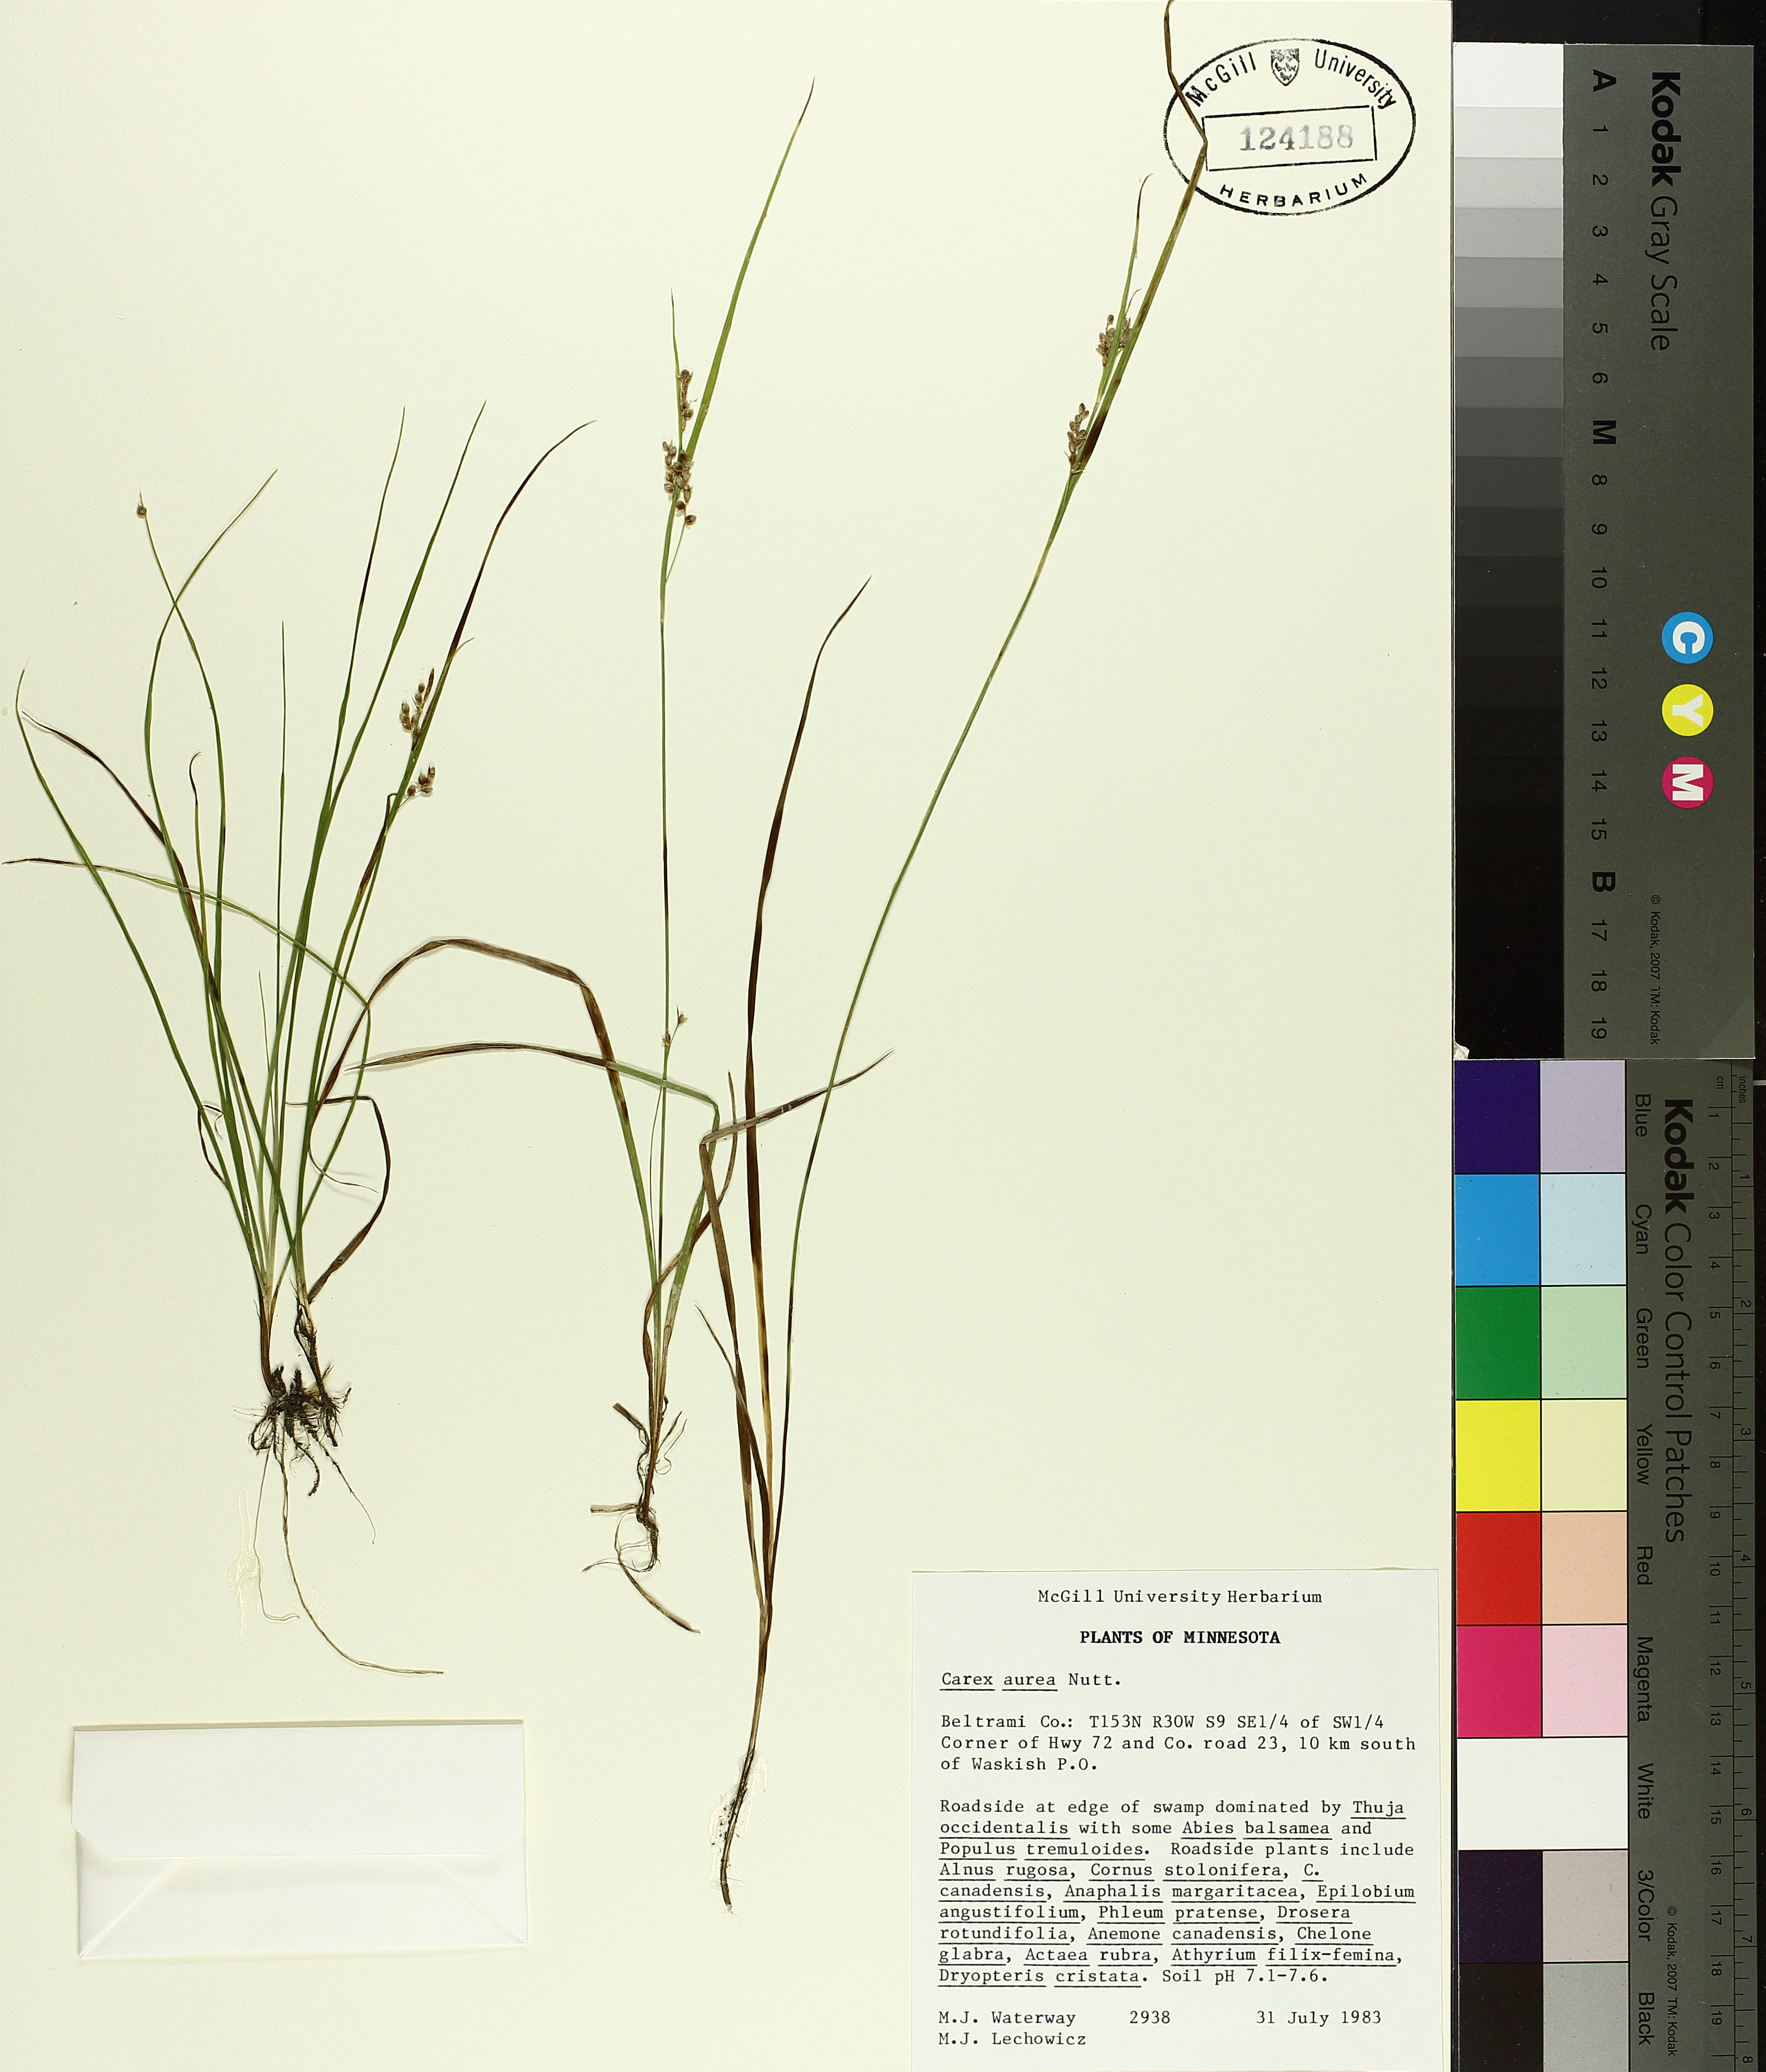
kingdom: Plantae
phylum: Tracheophyta
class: Liliopsida
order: Poales
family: Cyperaceae
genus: Carex
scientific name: Carex aurea
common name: Golden sedge
